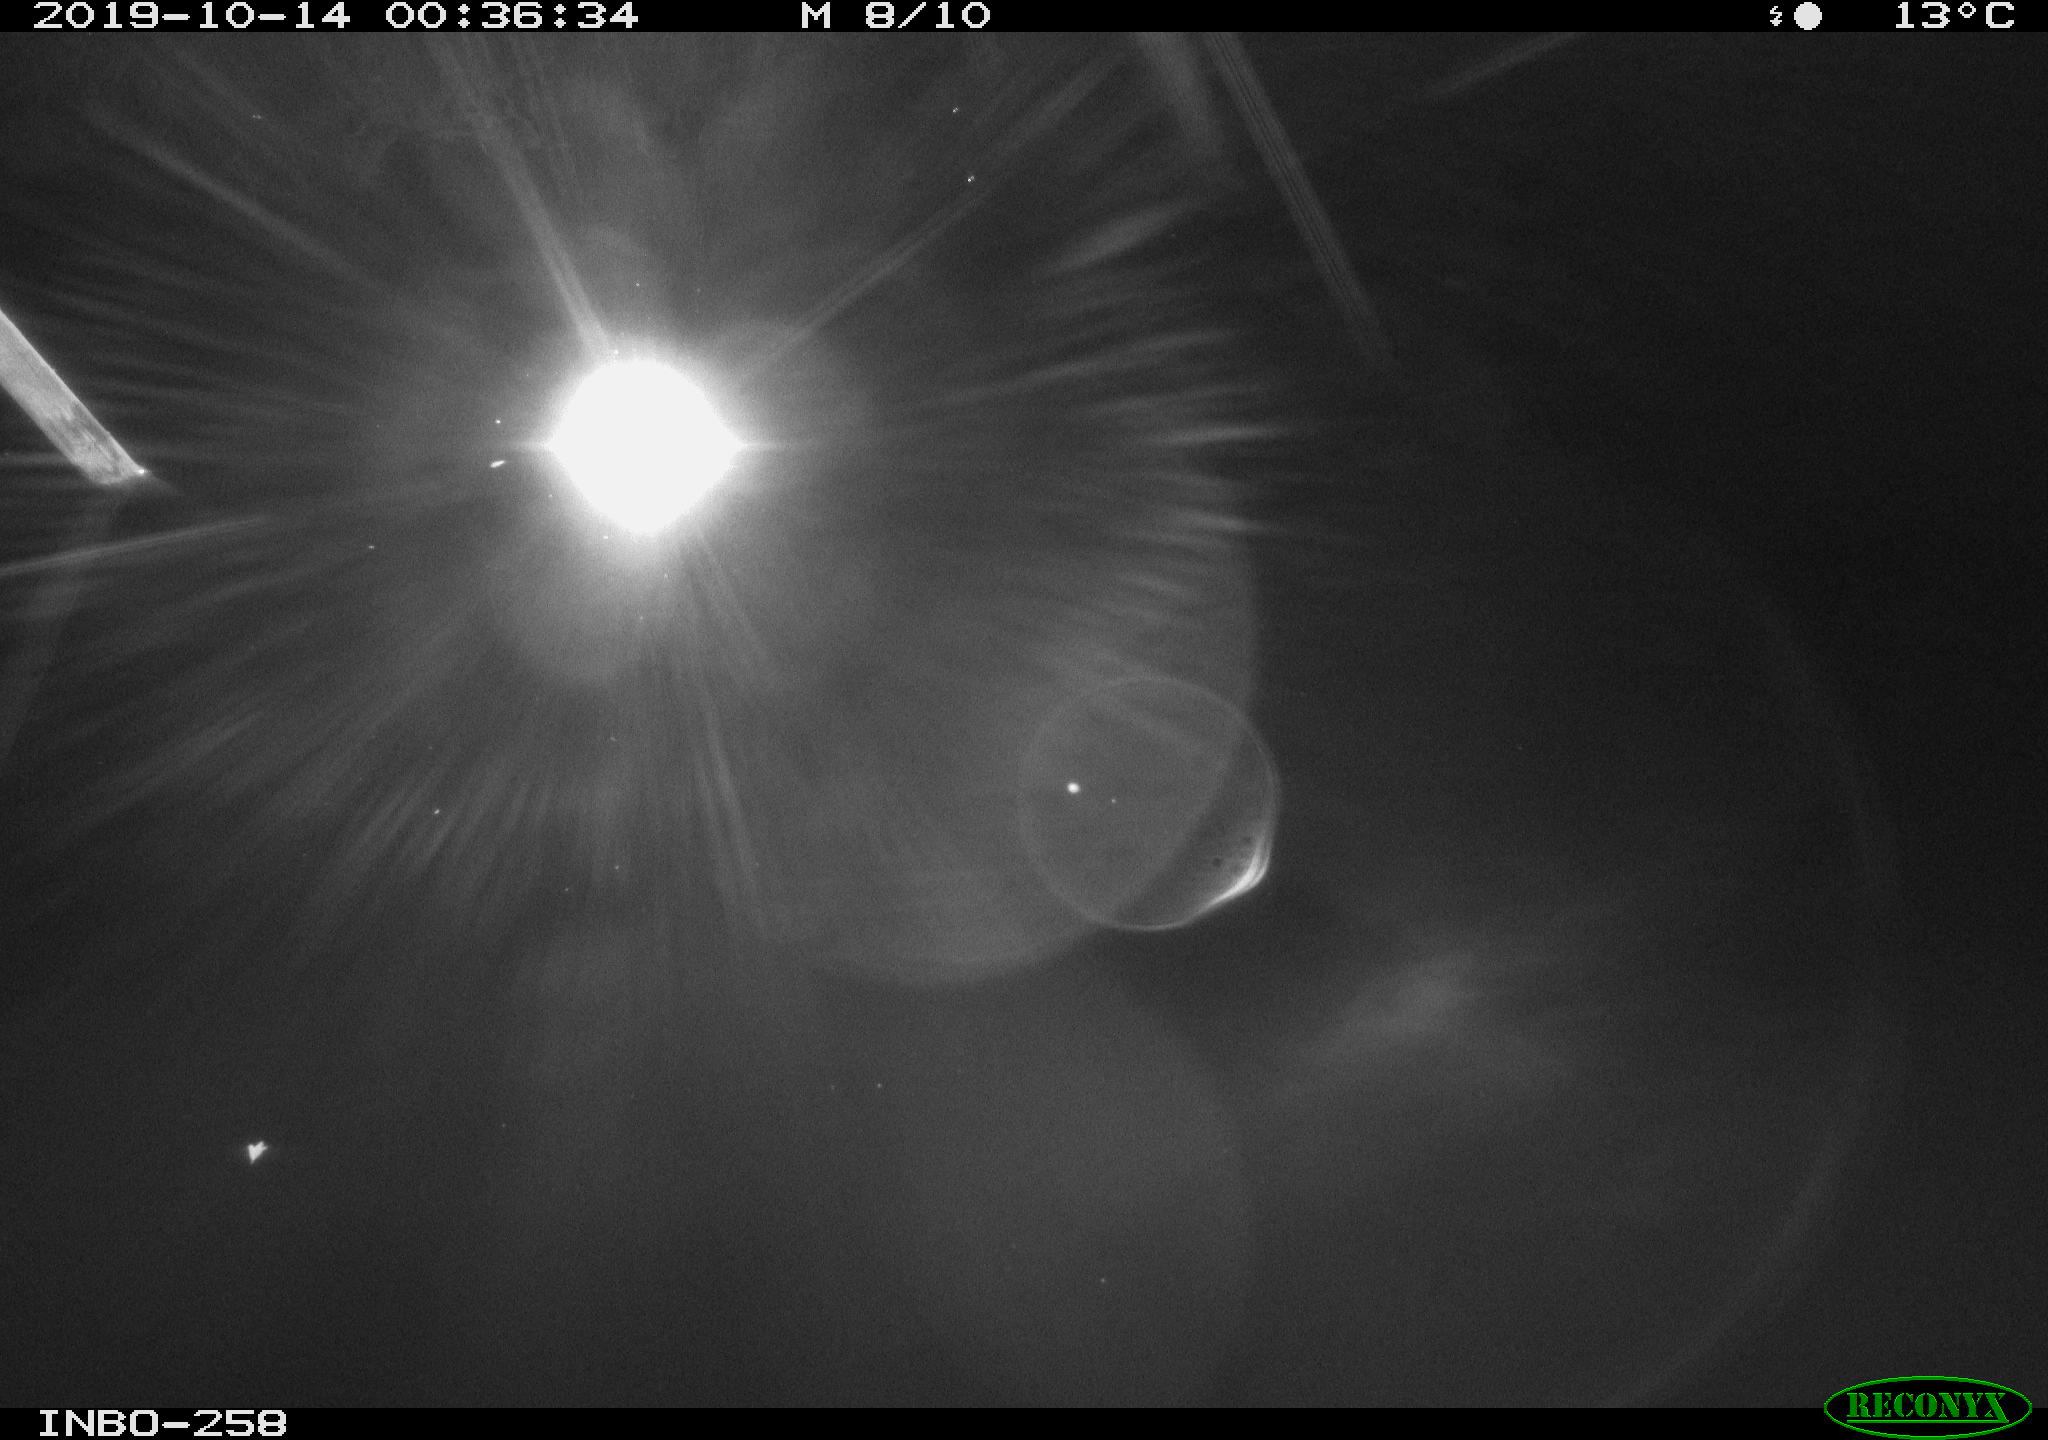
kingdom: Animalia
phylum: Chordata
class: Aves
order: Anseriformes
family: Anatidae
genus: Anas
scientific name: Anas platyrhynchos
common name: Mallard
